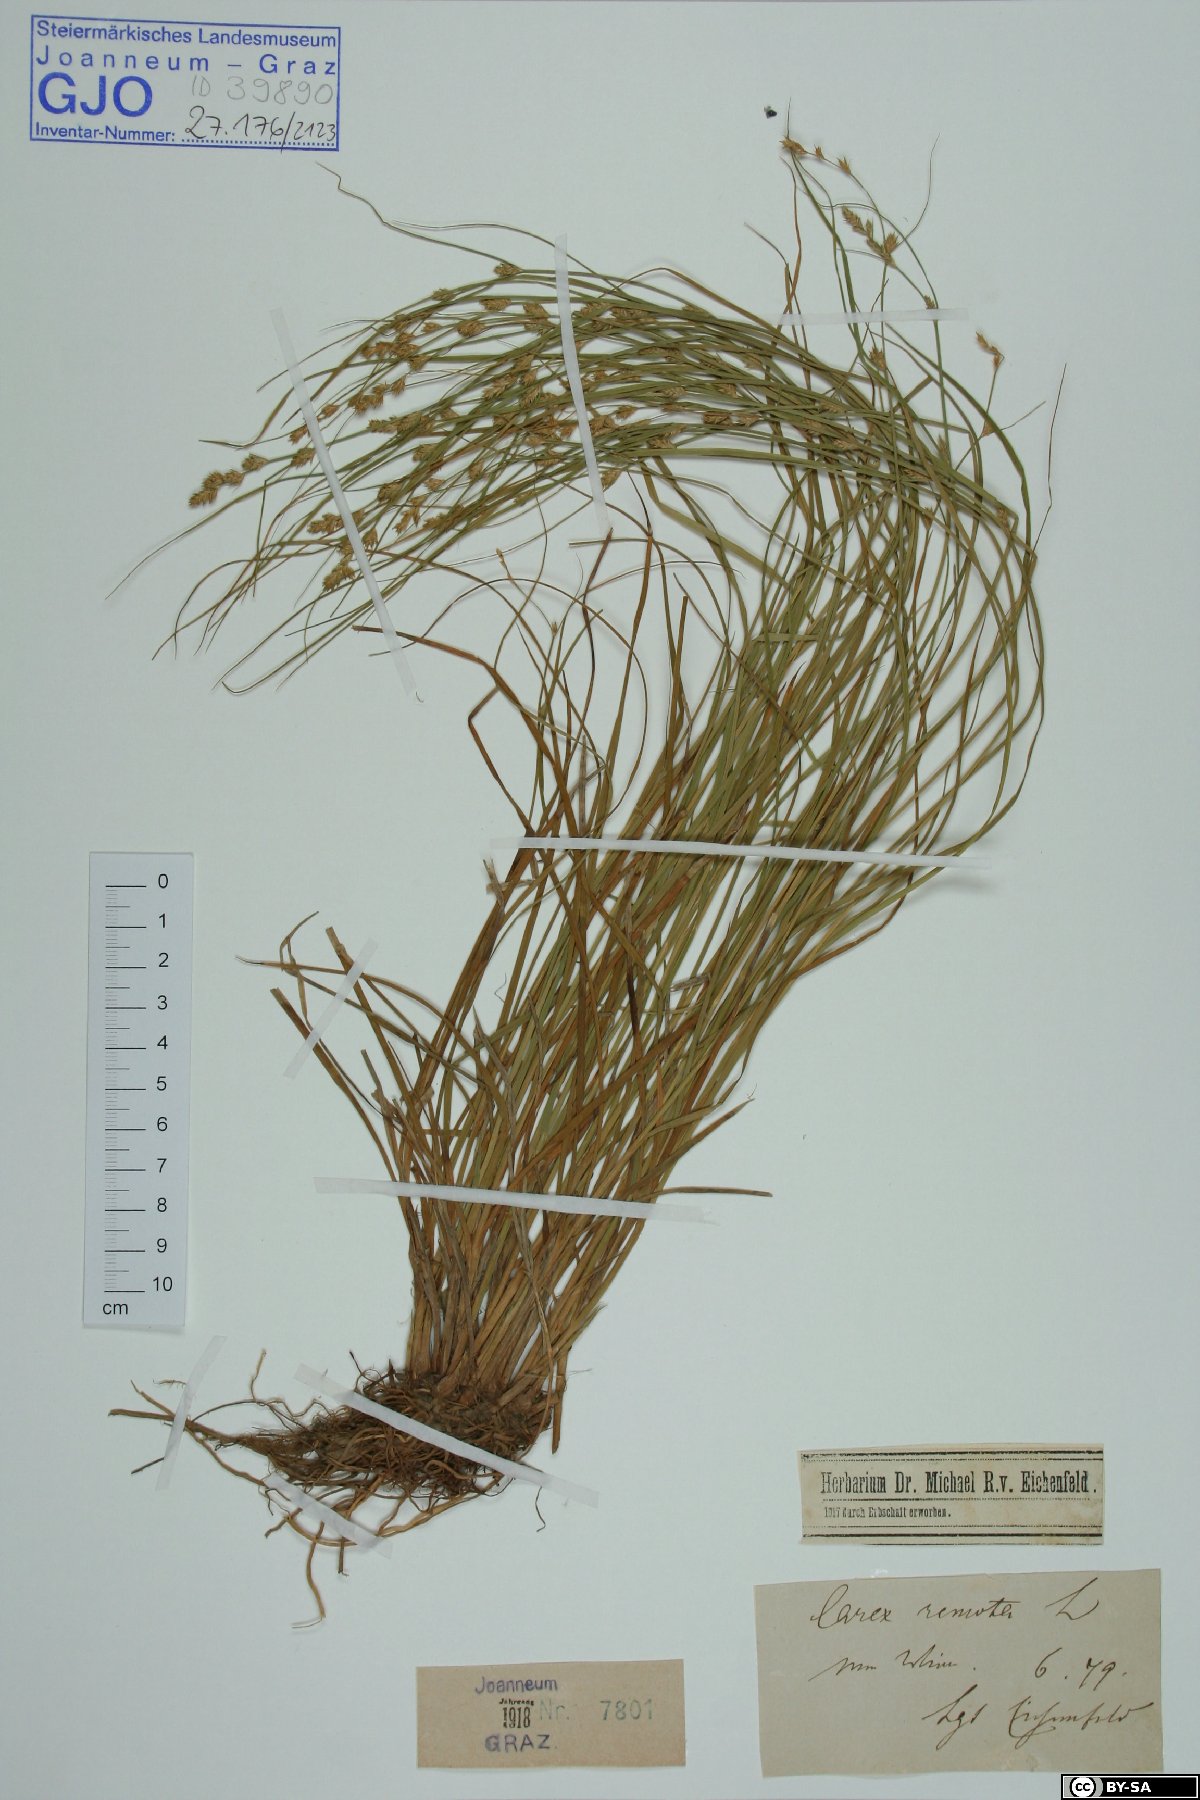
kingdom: Plantae
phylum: Tracheophyta
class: Liliopsida
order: Poales
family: Cyperaceae
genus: Carex
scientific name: Carex remota
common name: Remote sedge
